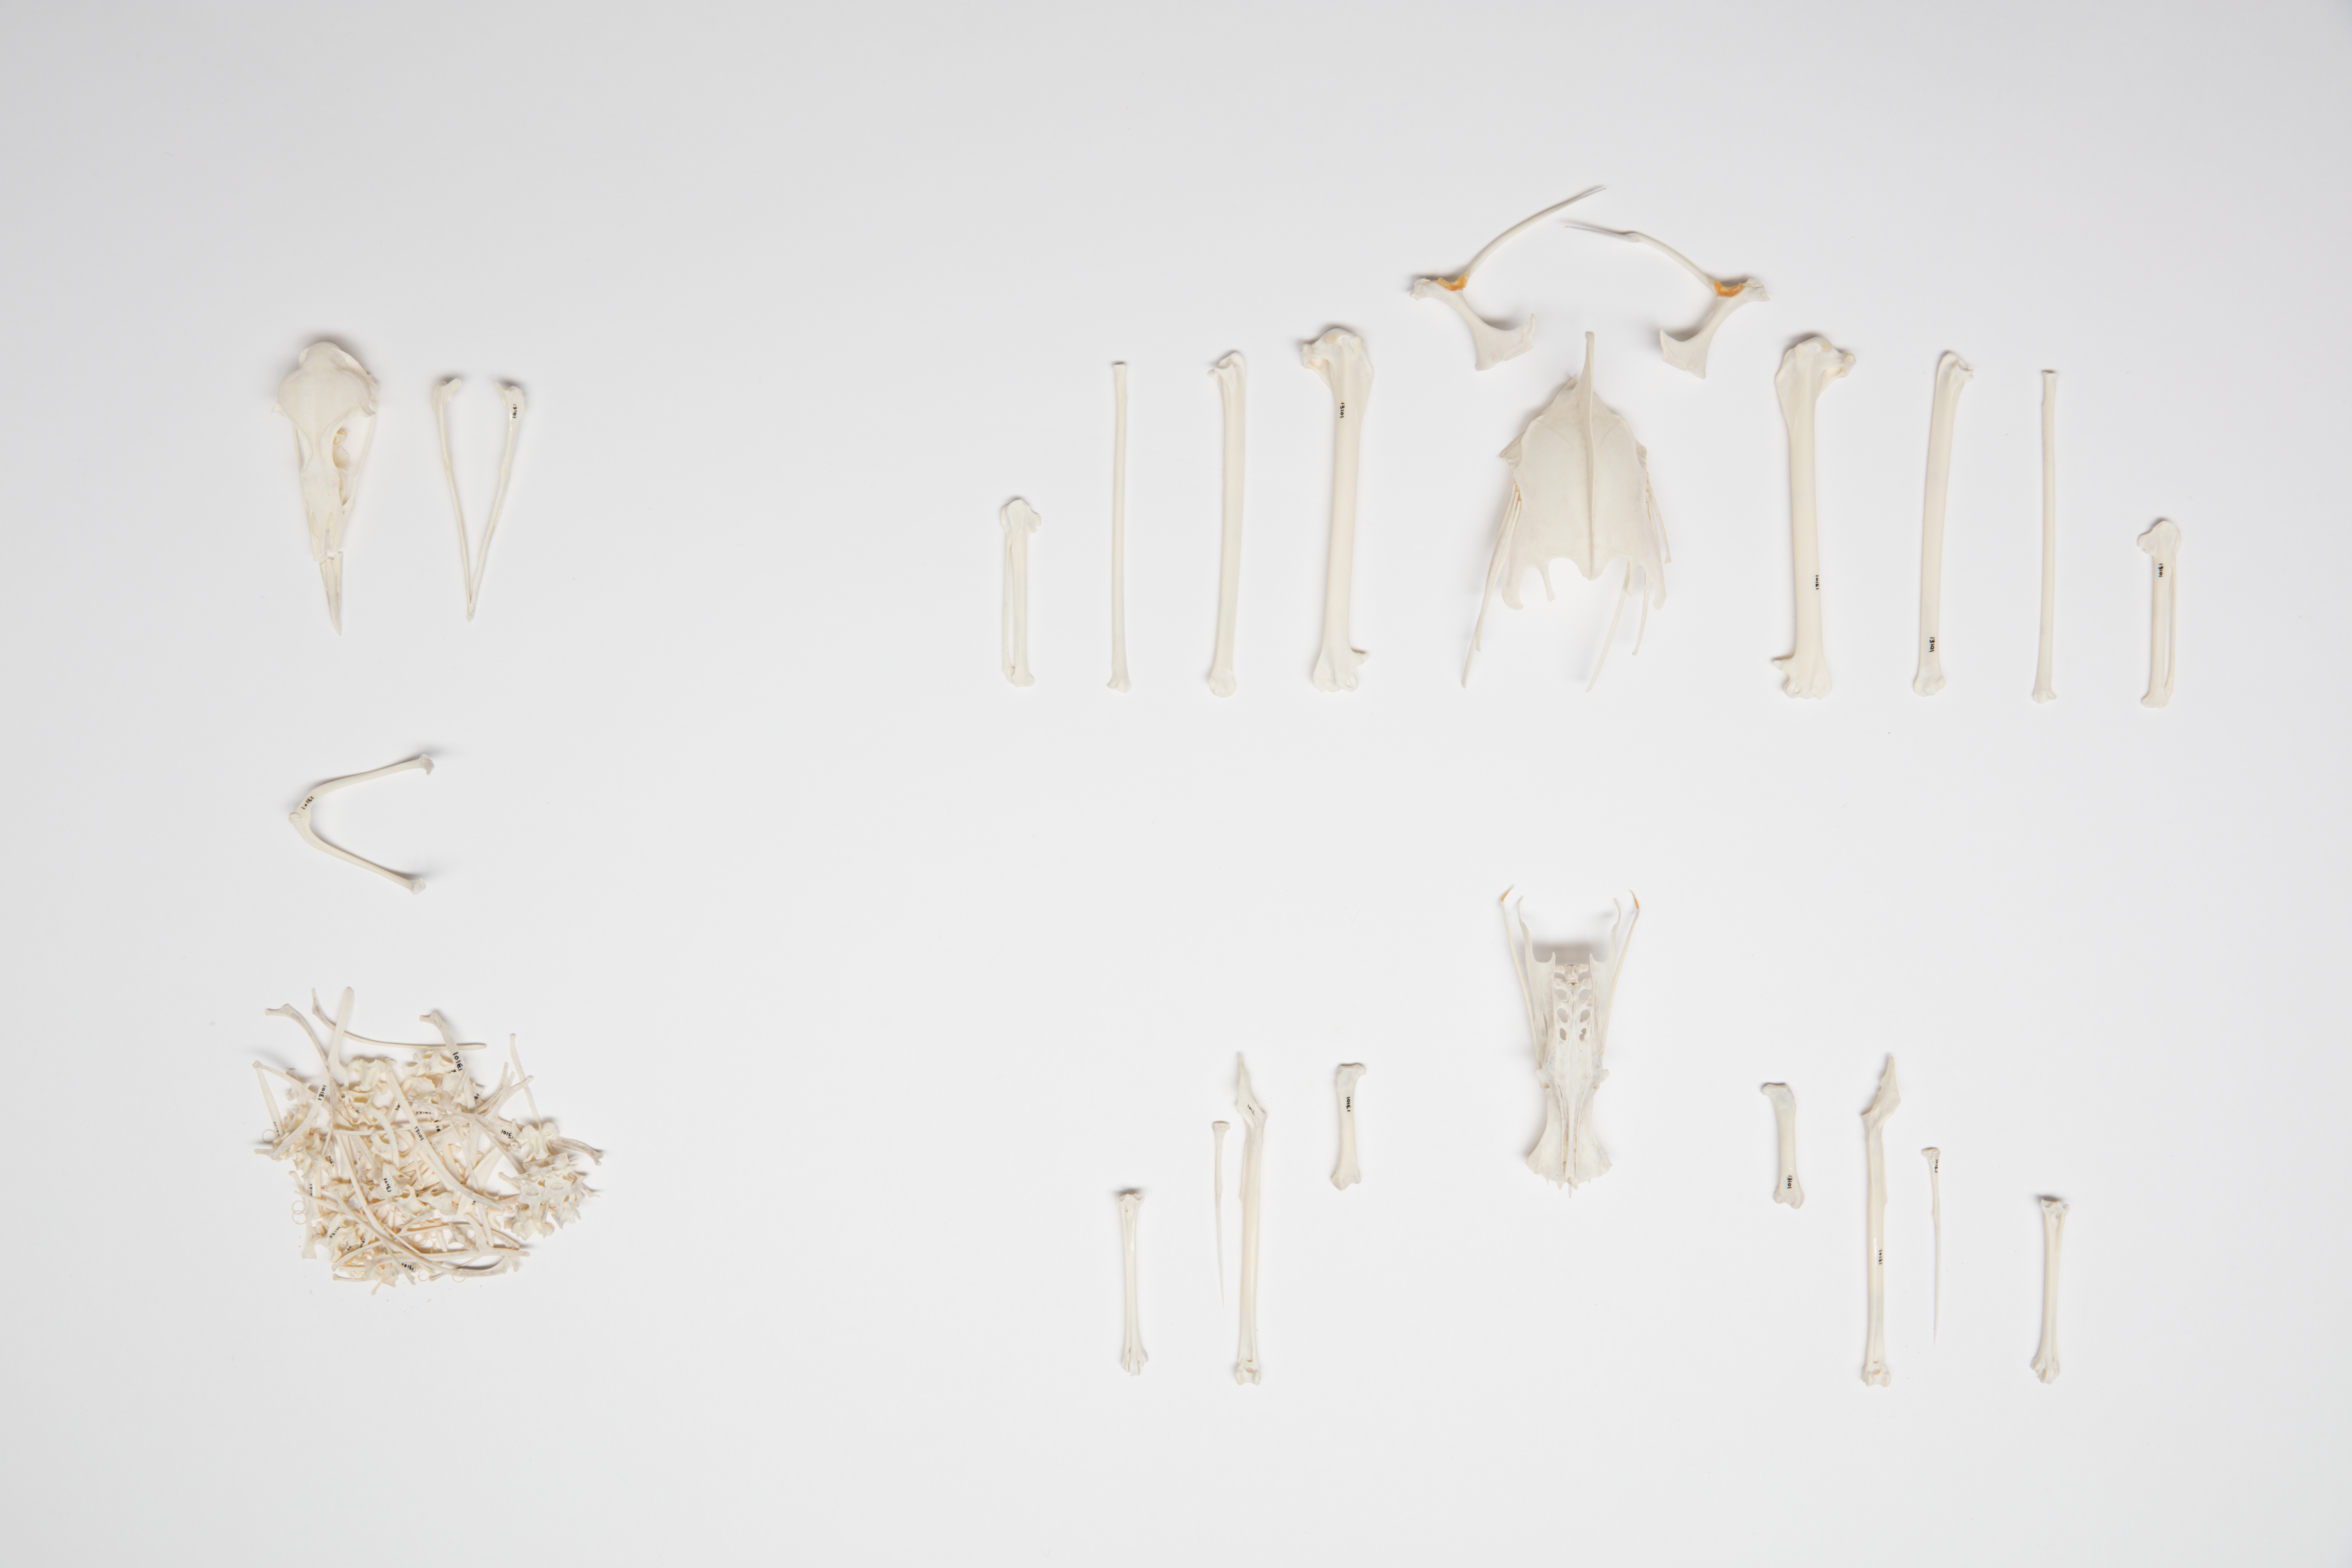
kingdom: Animalia
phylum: Chordata
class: Aves
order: Procellariiformes
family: Procellariidae
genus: Puffinus
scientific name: Puffinus tenuirostris
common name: Short-tailed shearwater
